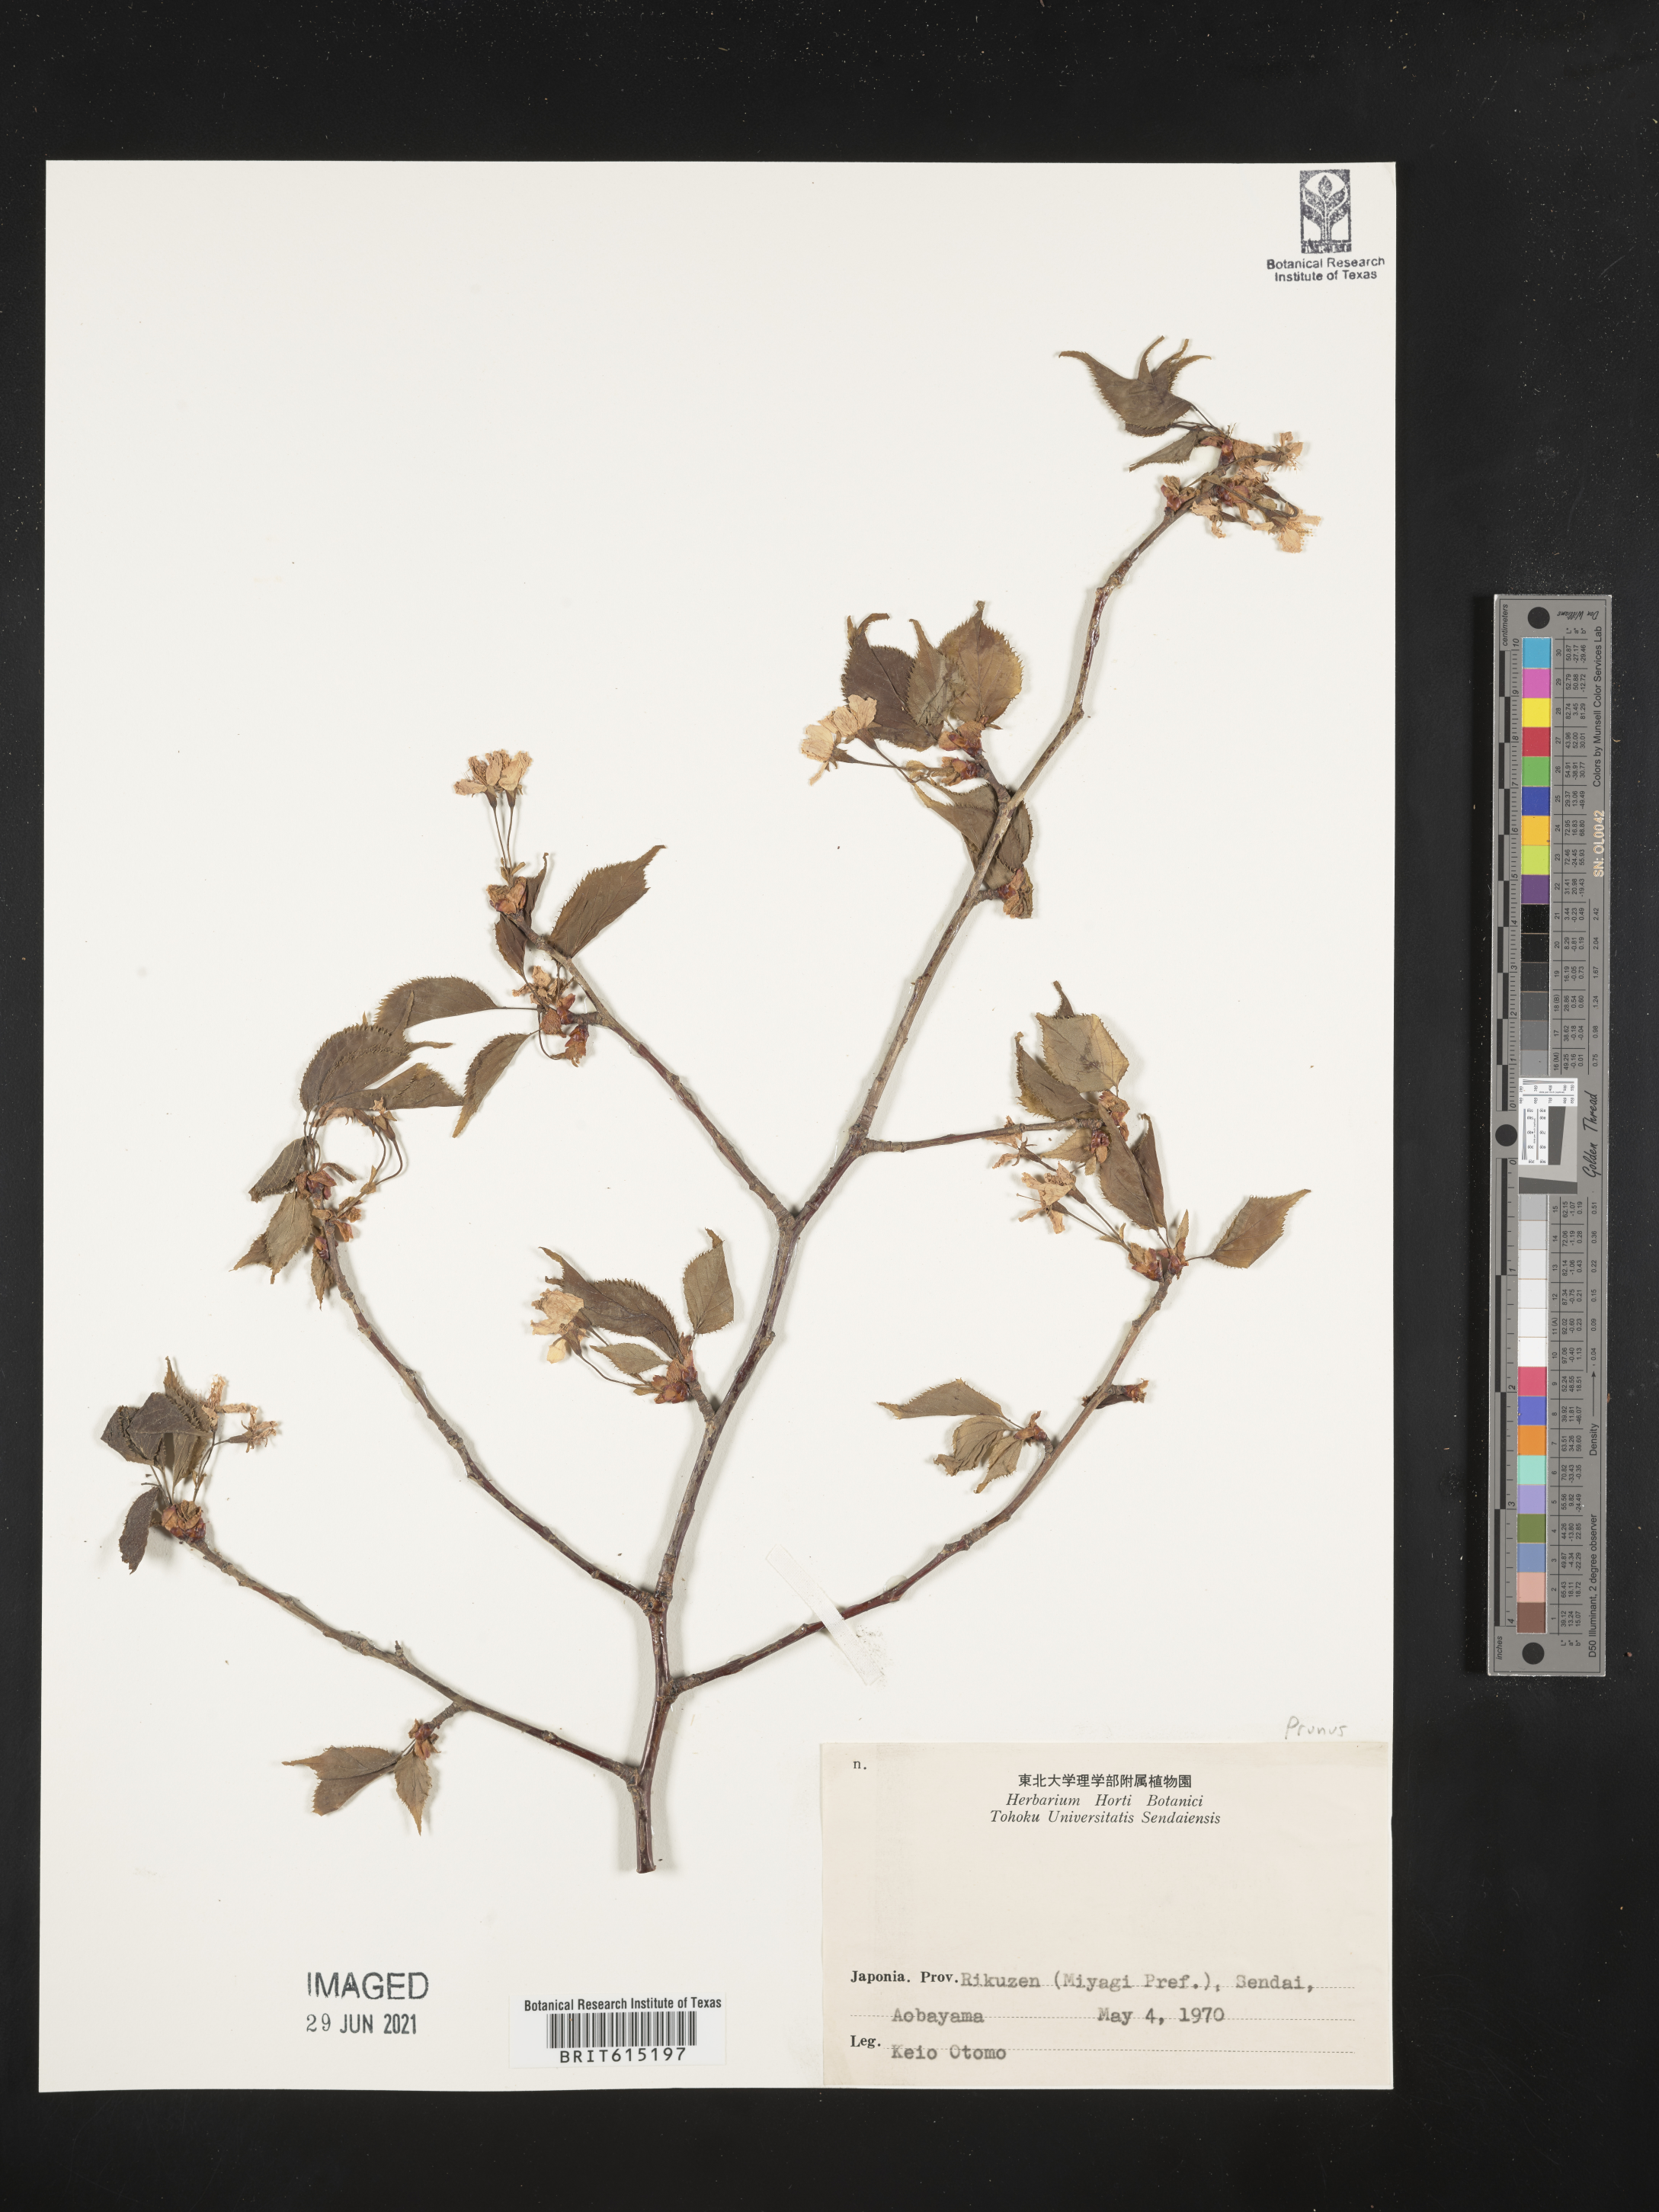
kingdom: Plantae
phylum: Tracheophyta
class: Magnoliopsida
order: Rosales
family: Rosaceae
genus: Prunus
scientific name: Prunus
